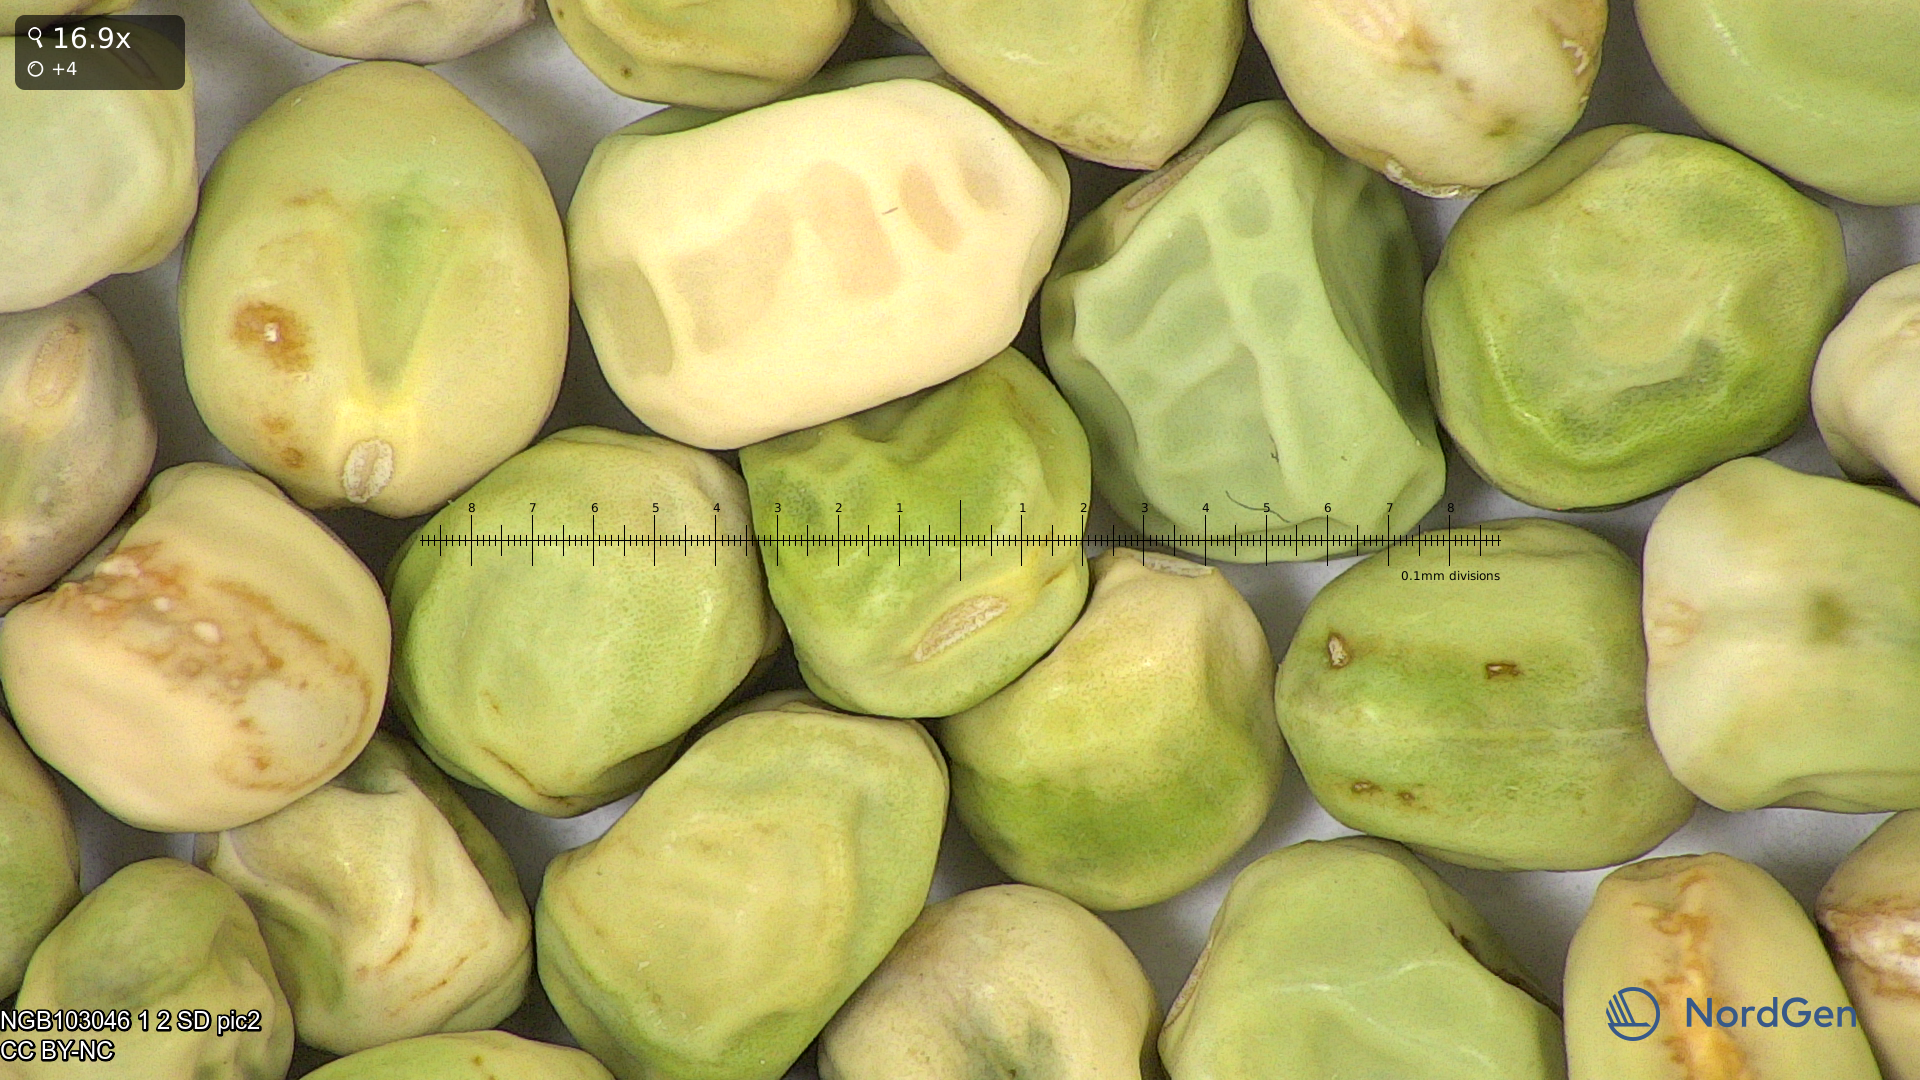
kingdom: Plantae
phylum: Tracheophyta
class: Magnoliopsida
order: Fabales
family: Fabaceae
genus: Lathyrus
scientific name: Lathyrus oleraceus
